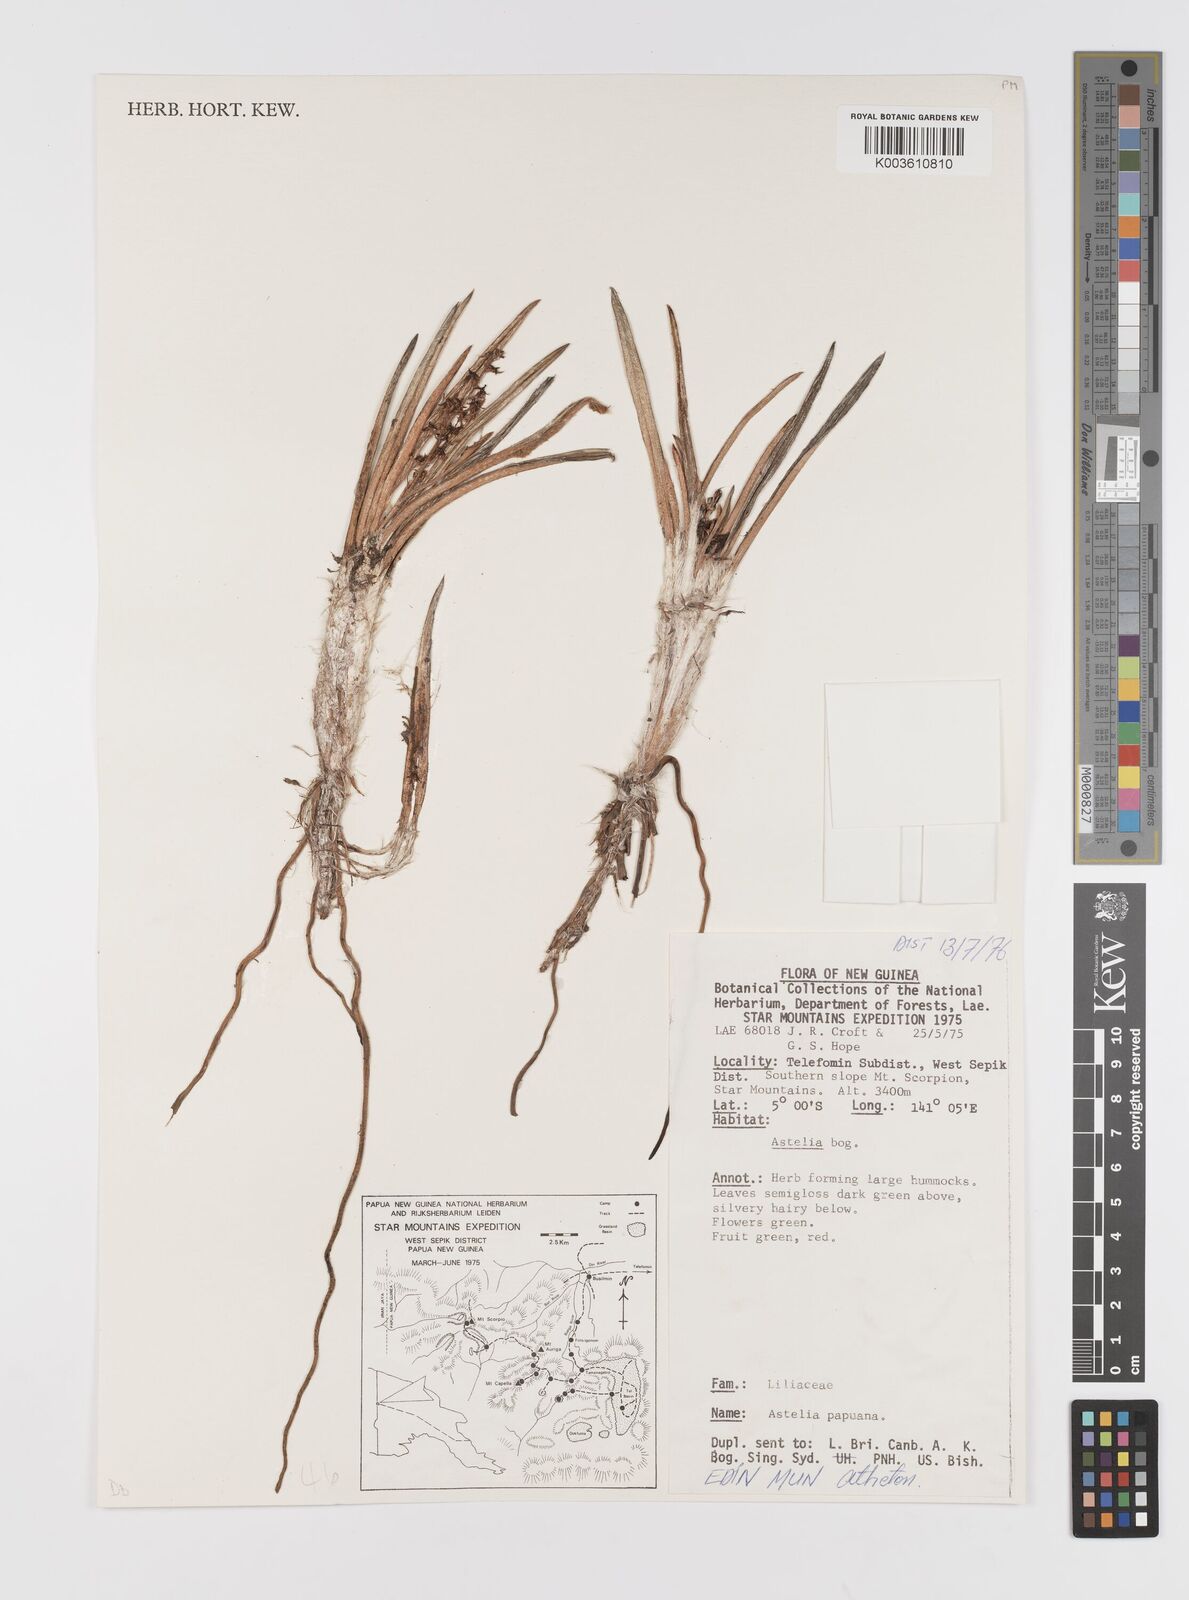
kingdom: Plantae
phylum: Tracheophyta
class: Liliopsida
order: Asparagales
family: Asteliaceae
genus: Astelia
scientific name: Astelia papuana
